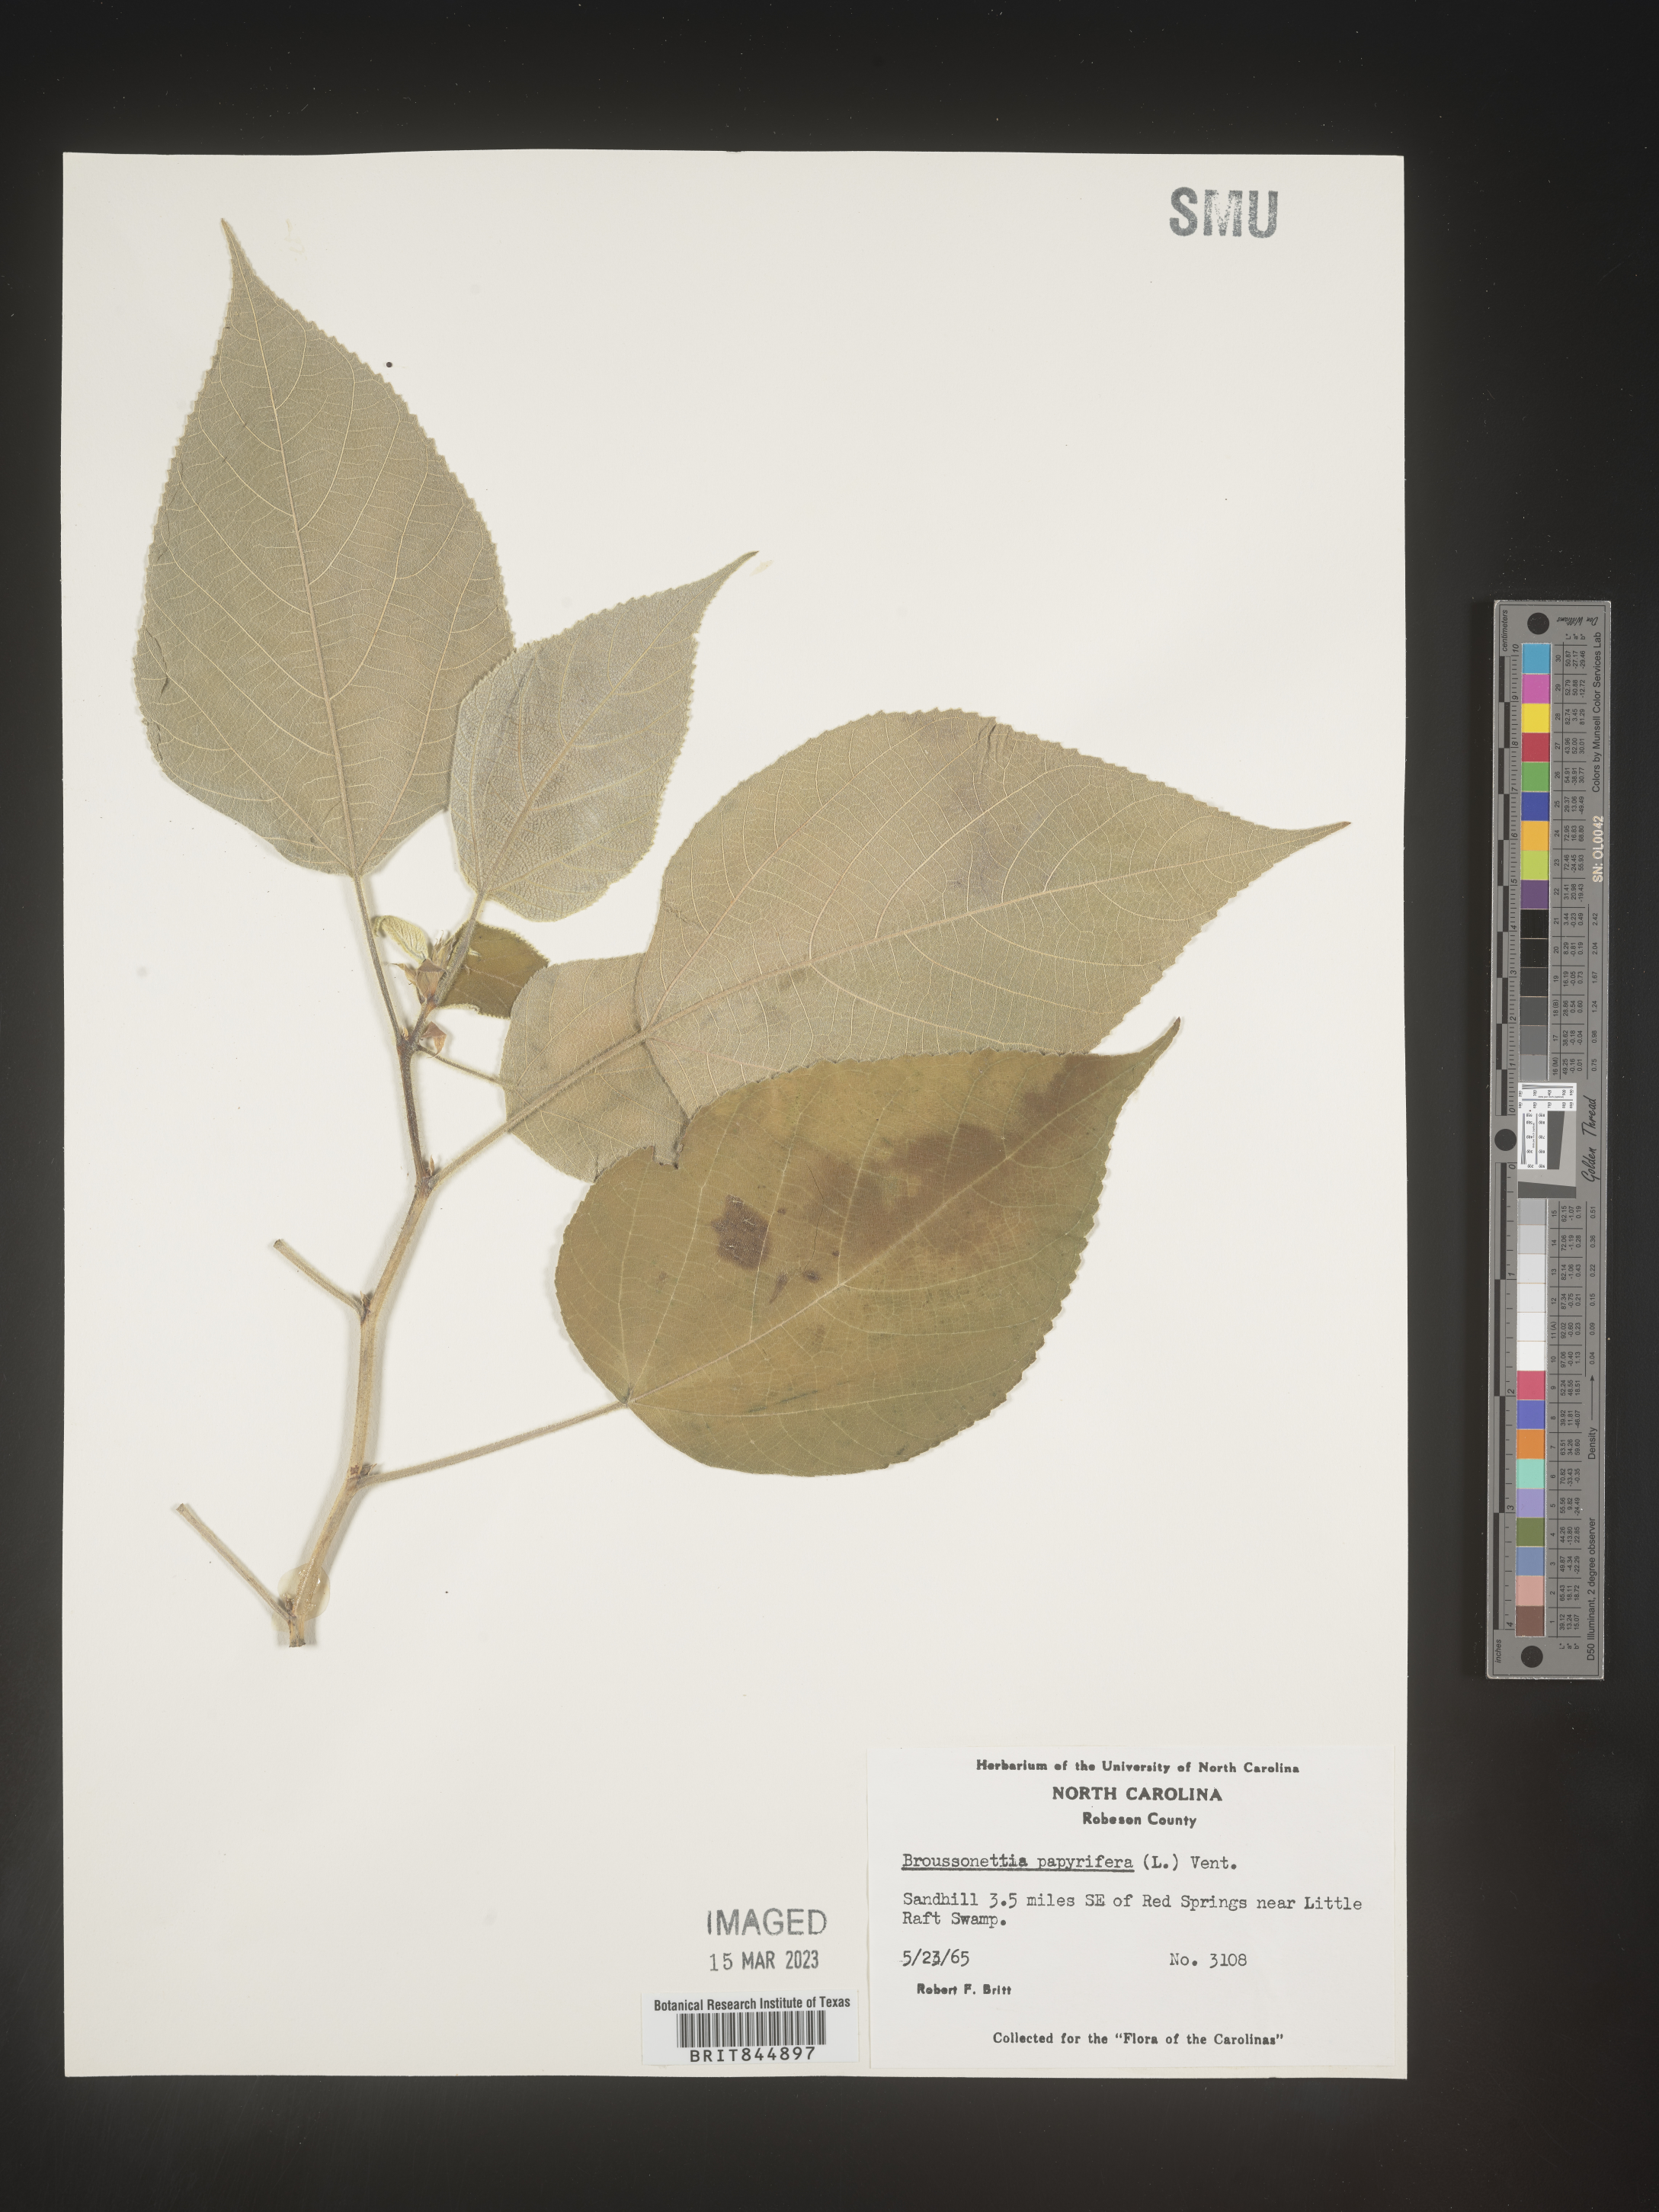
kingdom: Plantae
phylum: Tracheophyta
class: Magnoliopsida
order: Rosales
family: Moraceae
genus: Broussonetia
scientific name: Broussonetia
